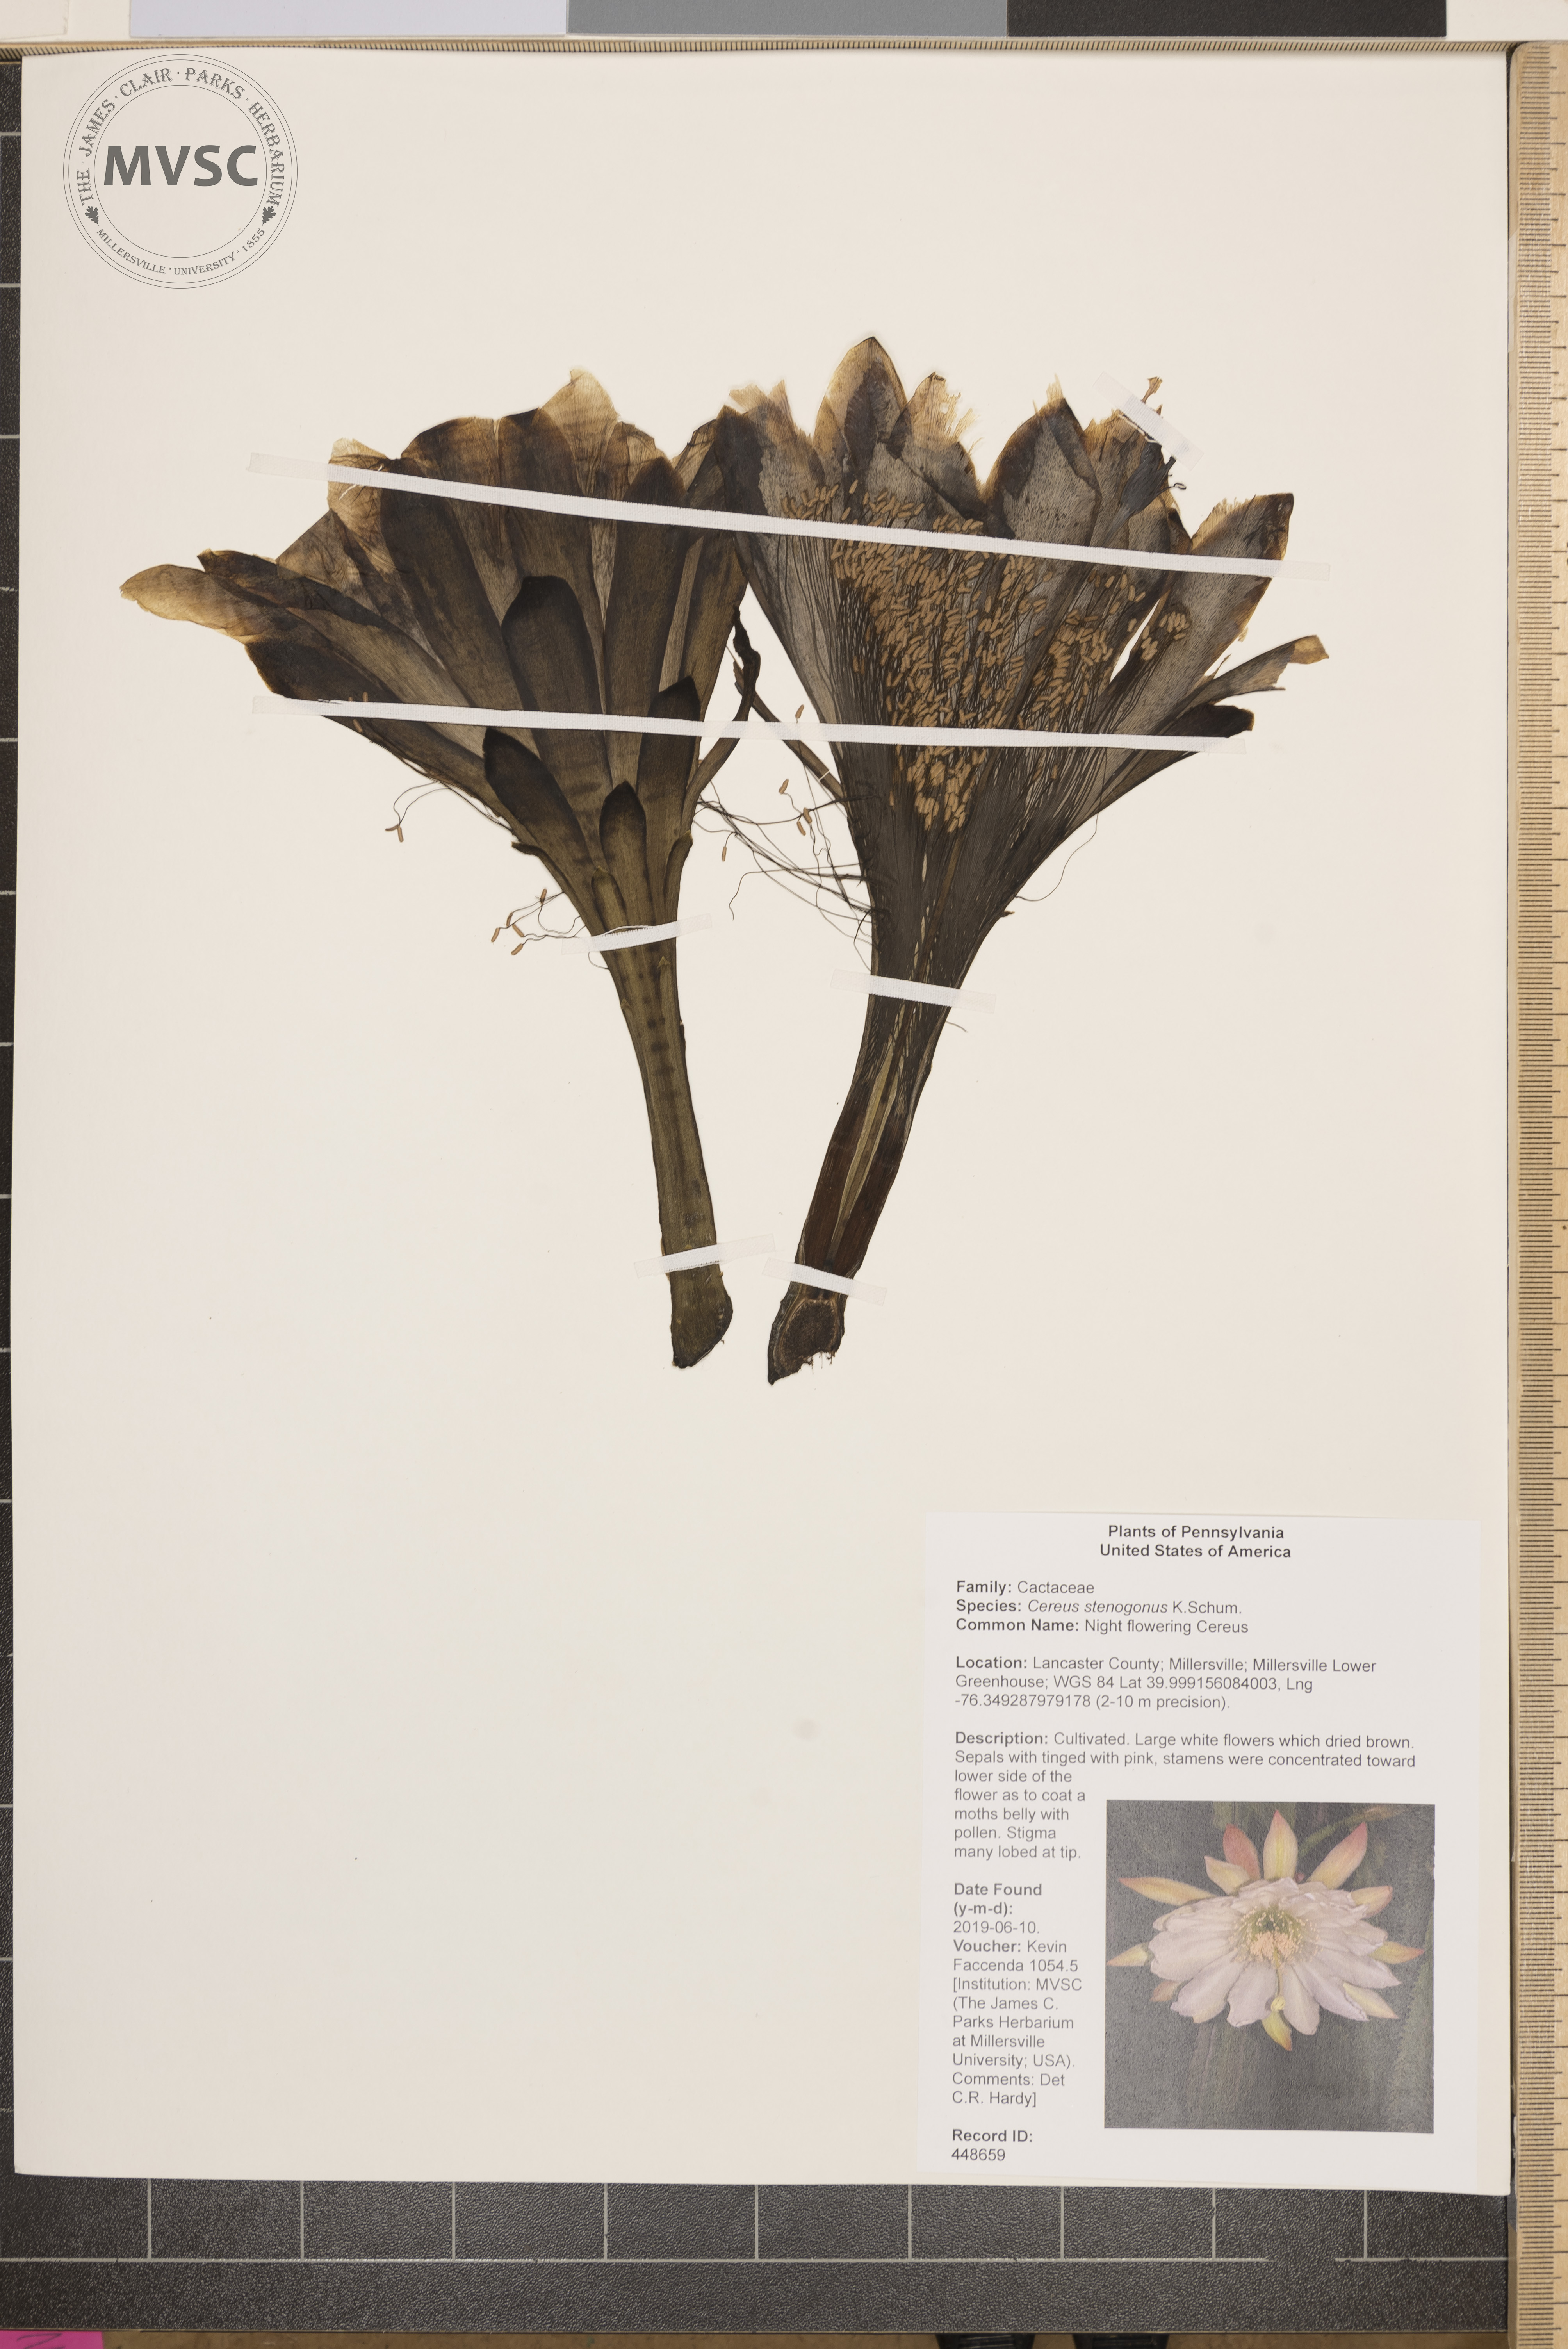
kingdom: Plantae
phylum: Tracheophyta
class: Magnoliopsida
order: Caryophyllales
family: Cactaceae
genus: Cereus
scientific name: Cereus stenogonus
